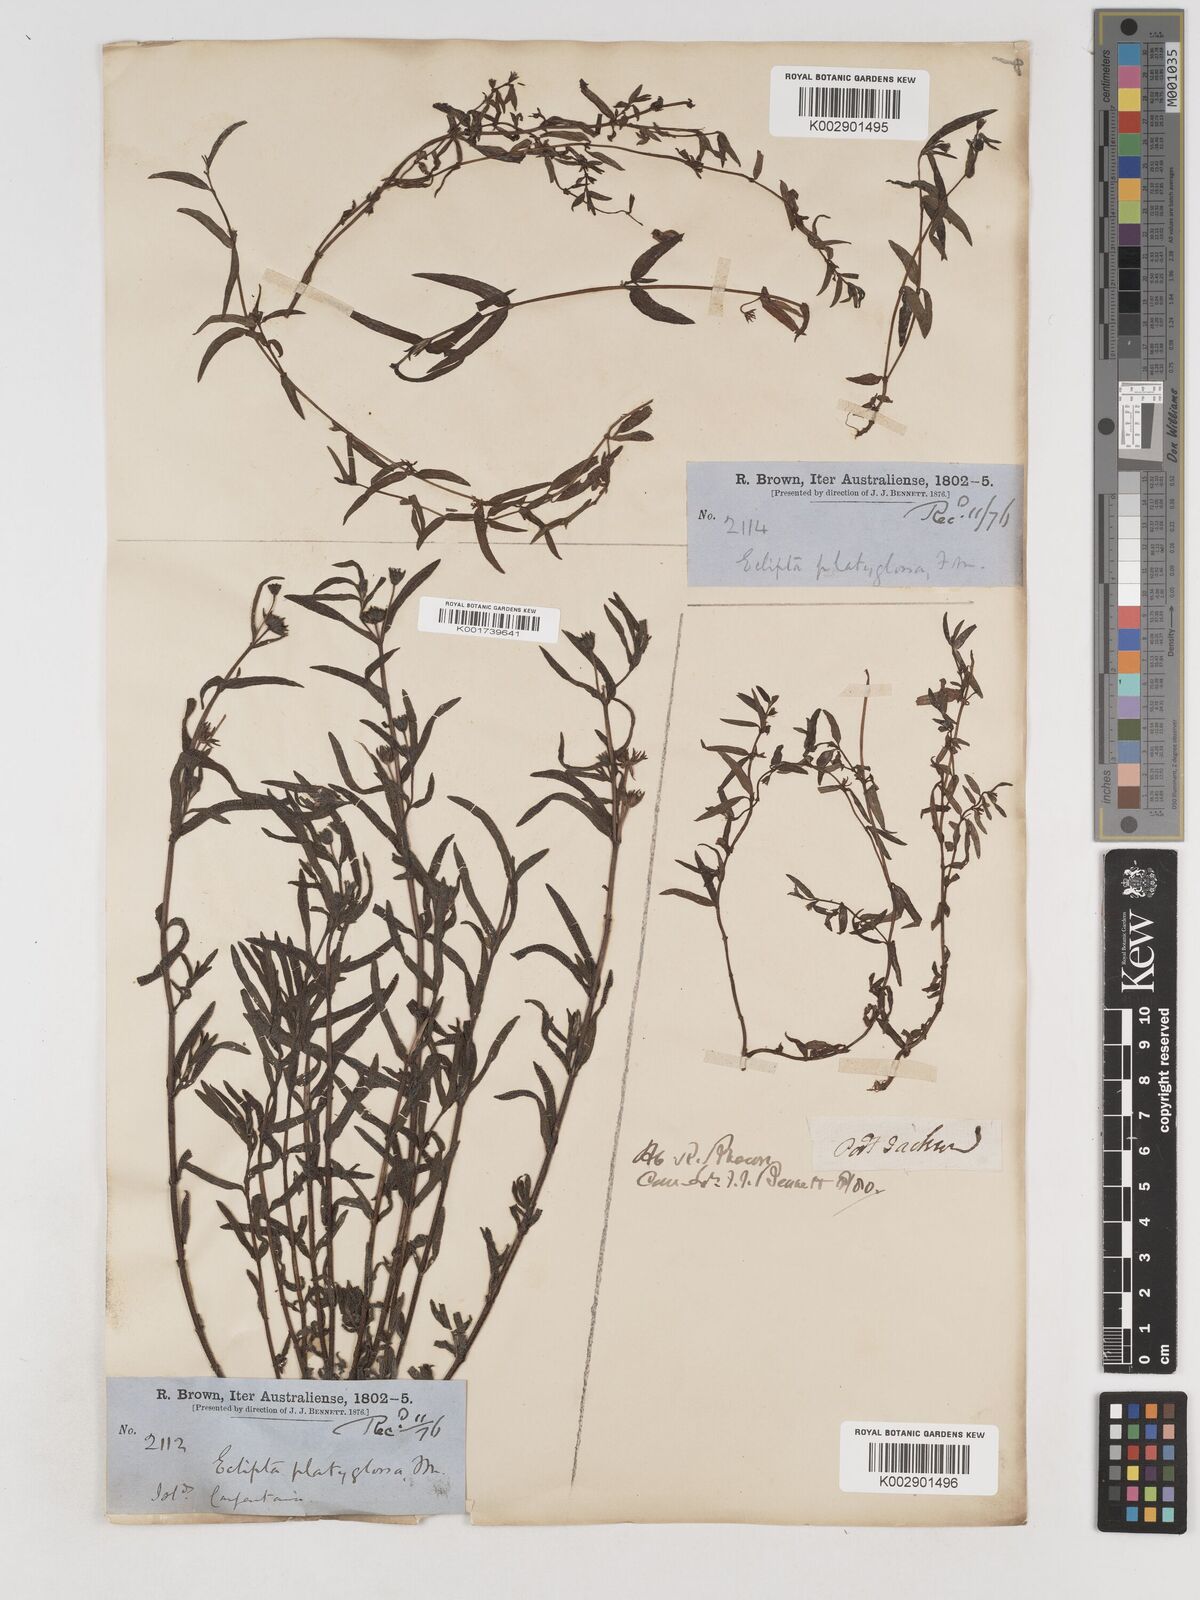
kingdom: Plantae
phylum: Tracheophyta
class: Magnoliopsida
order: Asterales
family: Asteraceae
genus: Eclipta
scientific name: Eclipta platyglossa
